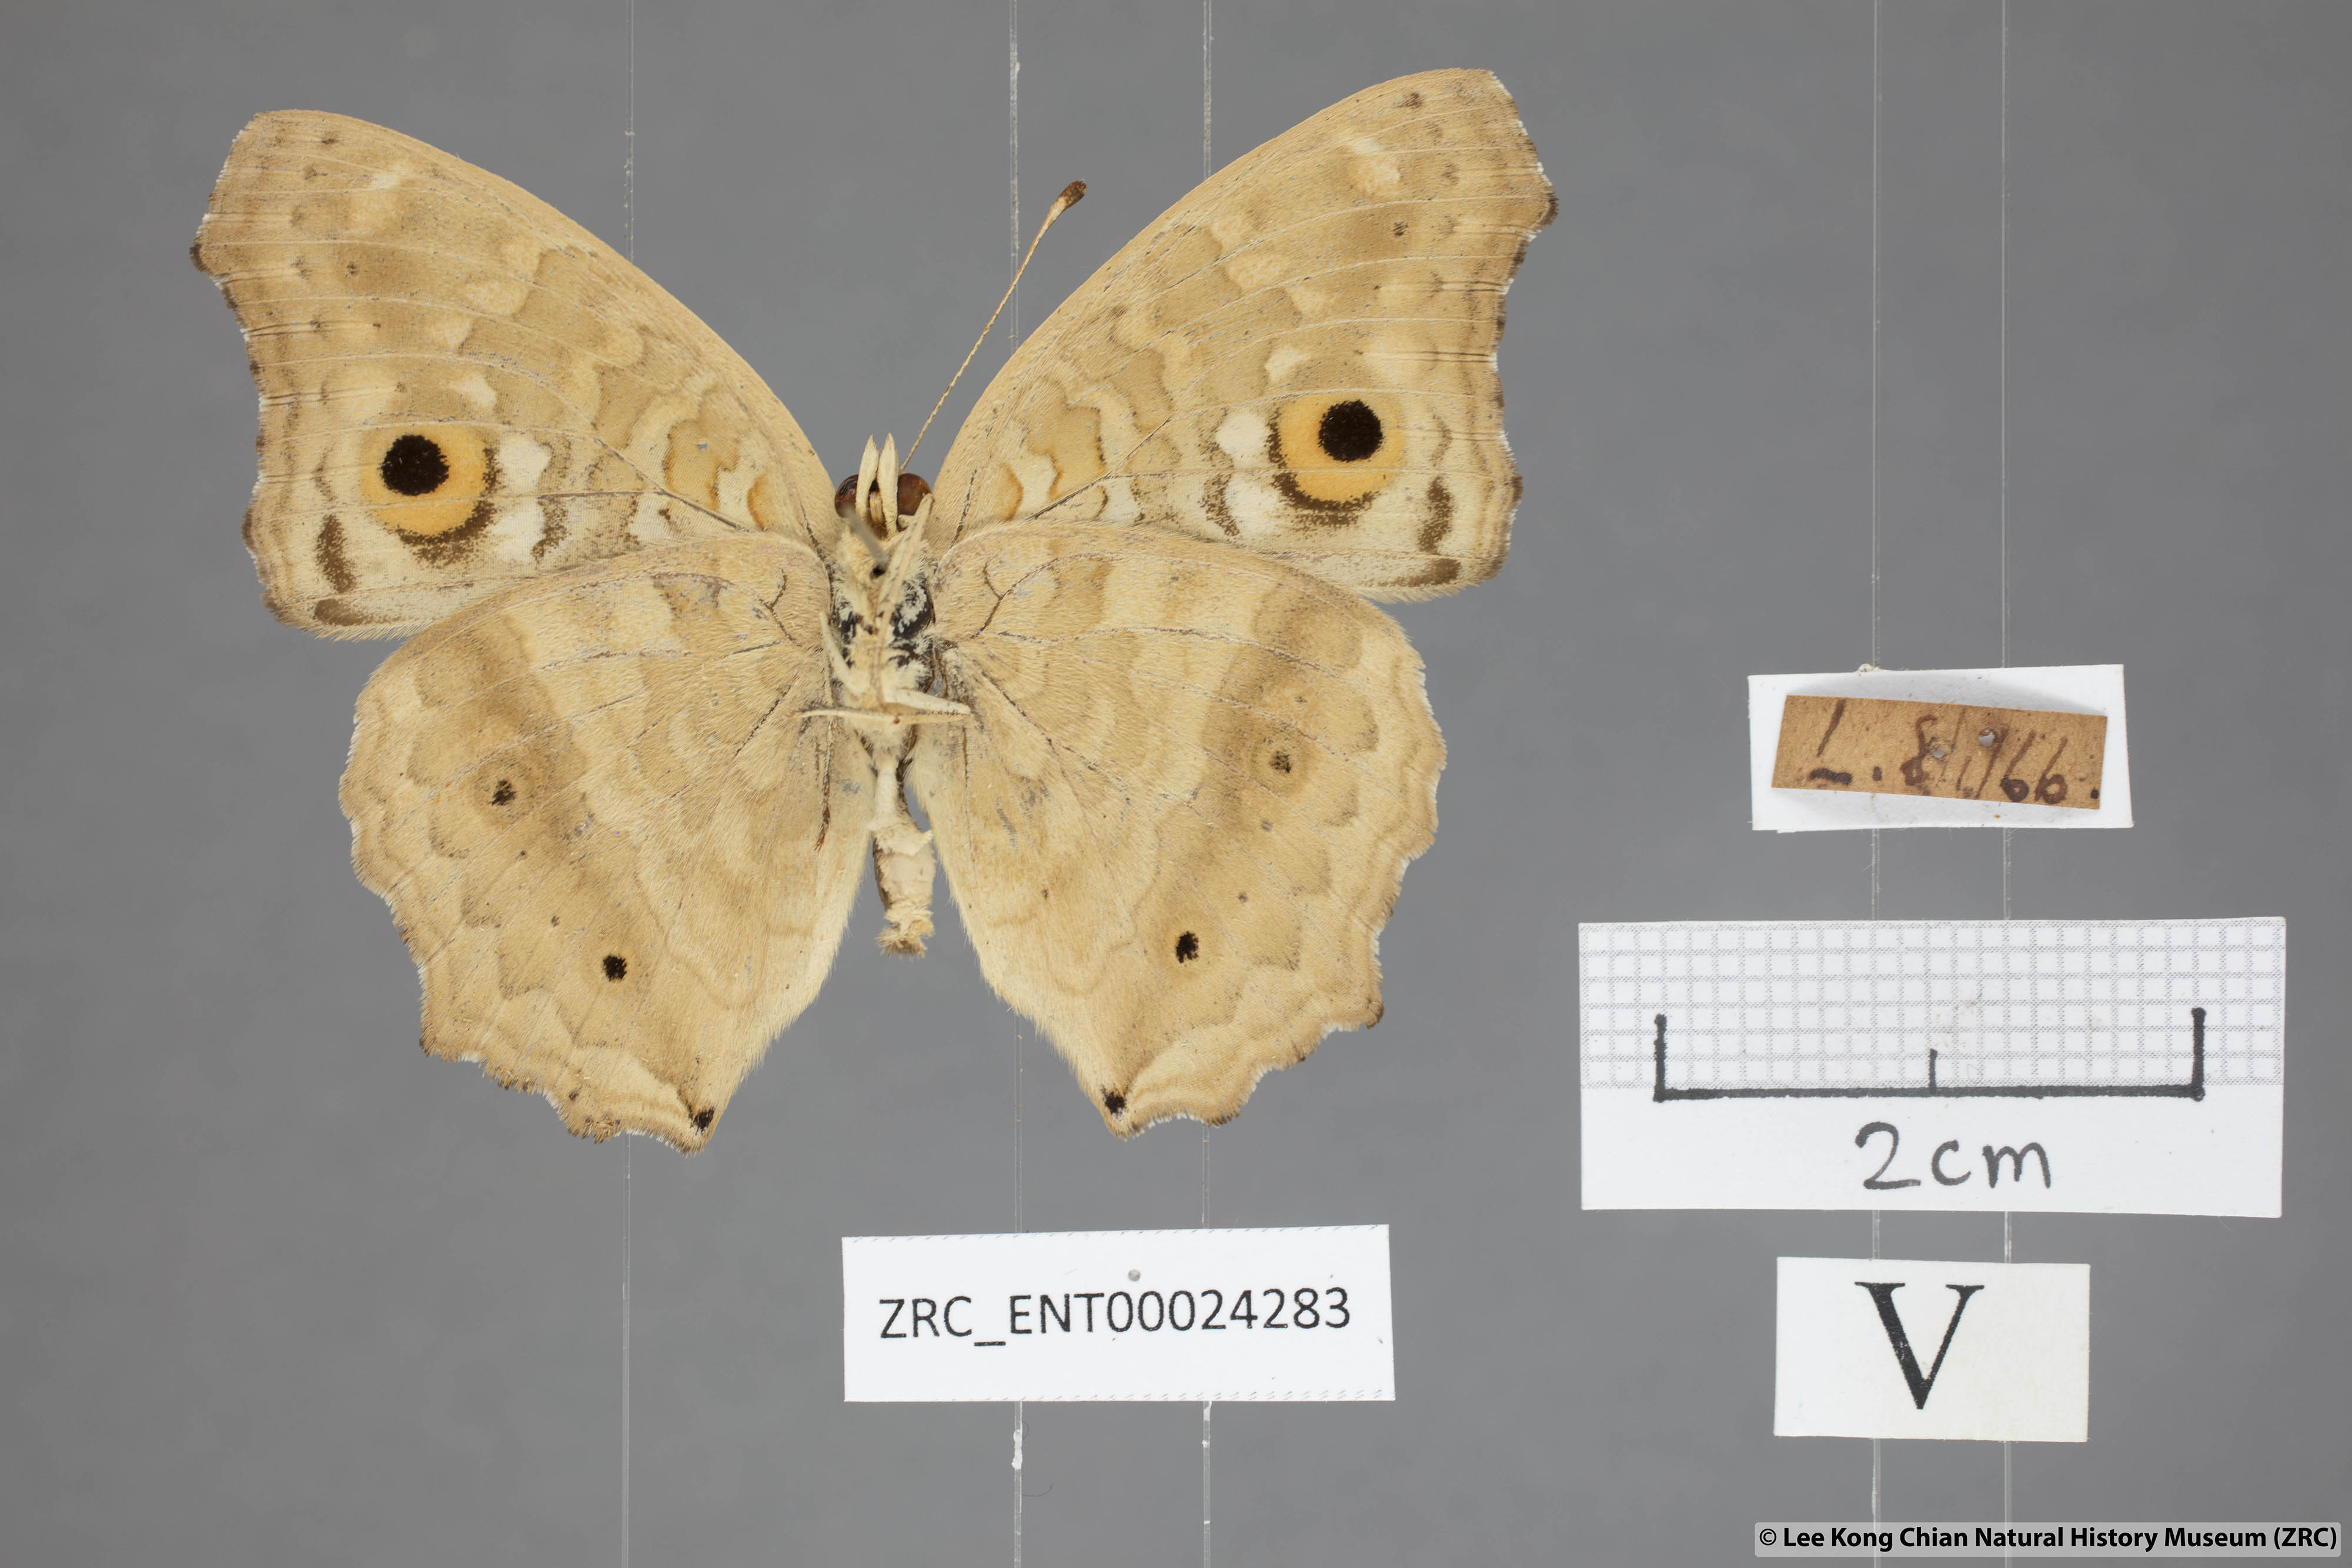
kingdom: Animalia
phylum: Arthropoda
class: Insecta
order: Lepidoptera
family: Nymphalidae
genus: Junonia
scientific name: Junonia lemonias
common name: Lemon pansy
